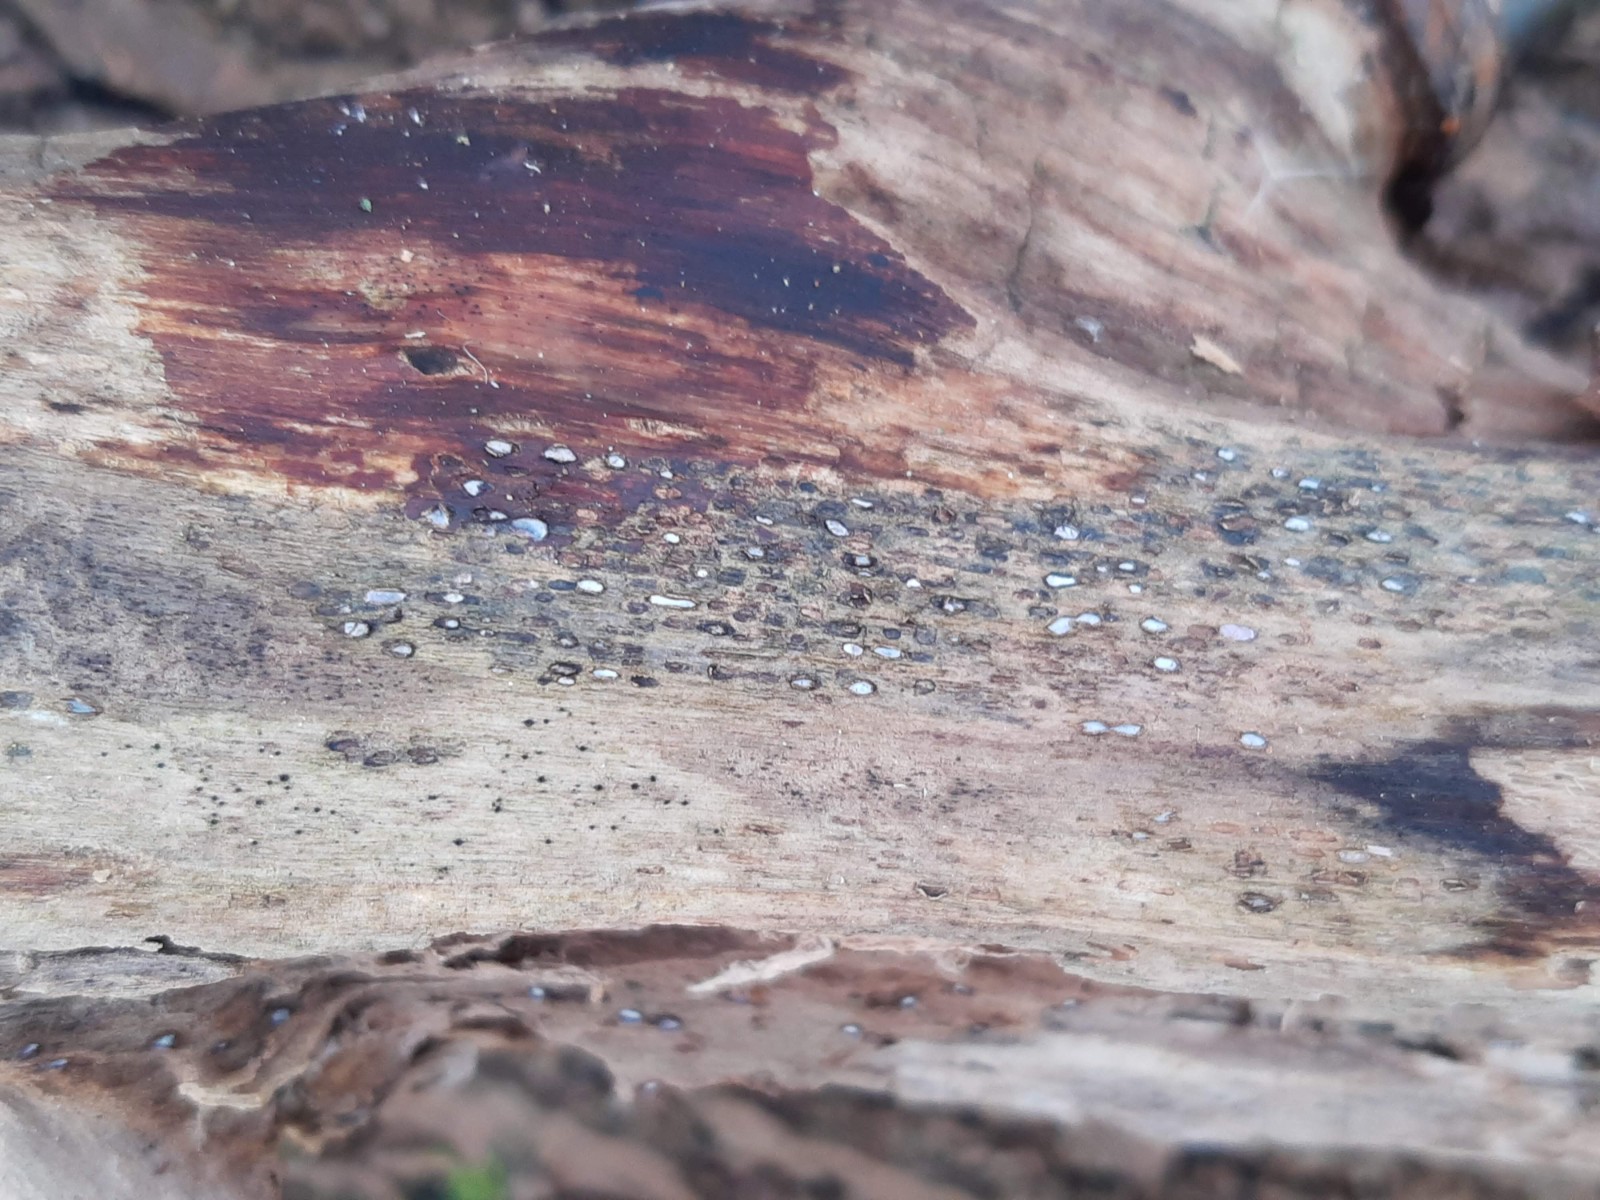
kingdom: Fungi
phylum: Ascomycota
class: Leotiomycetes
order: Chaetomellales
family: Marthamycetaceae
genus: Propolis
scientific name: Propolis farinosa
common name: almindelig vedsprængerskive
